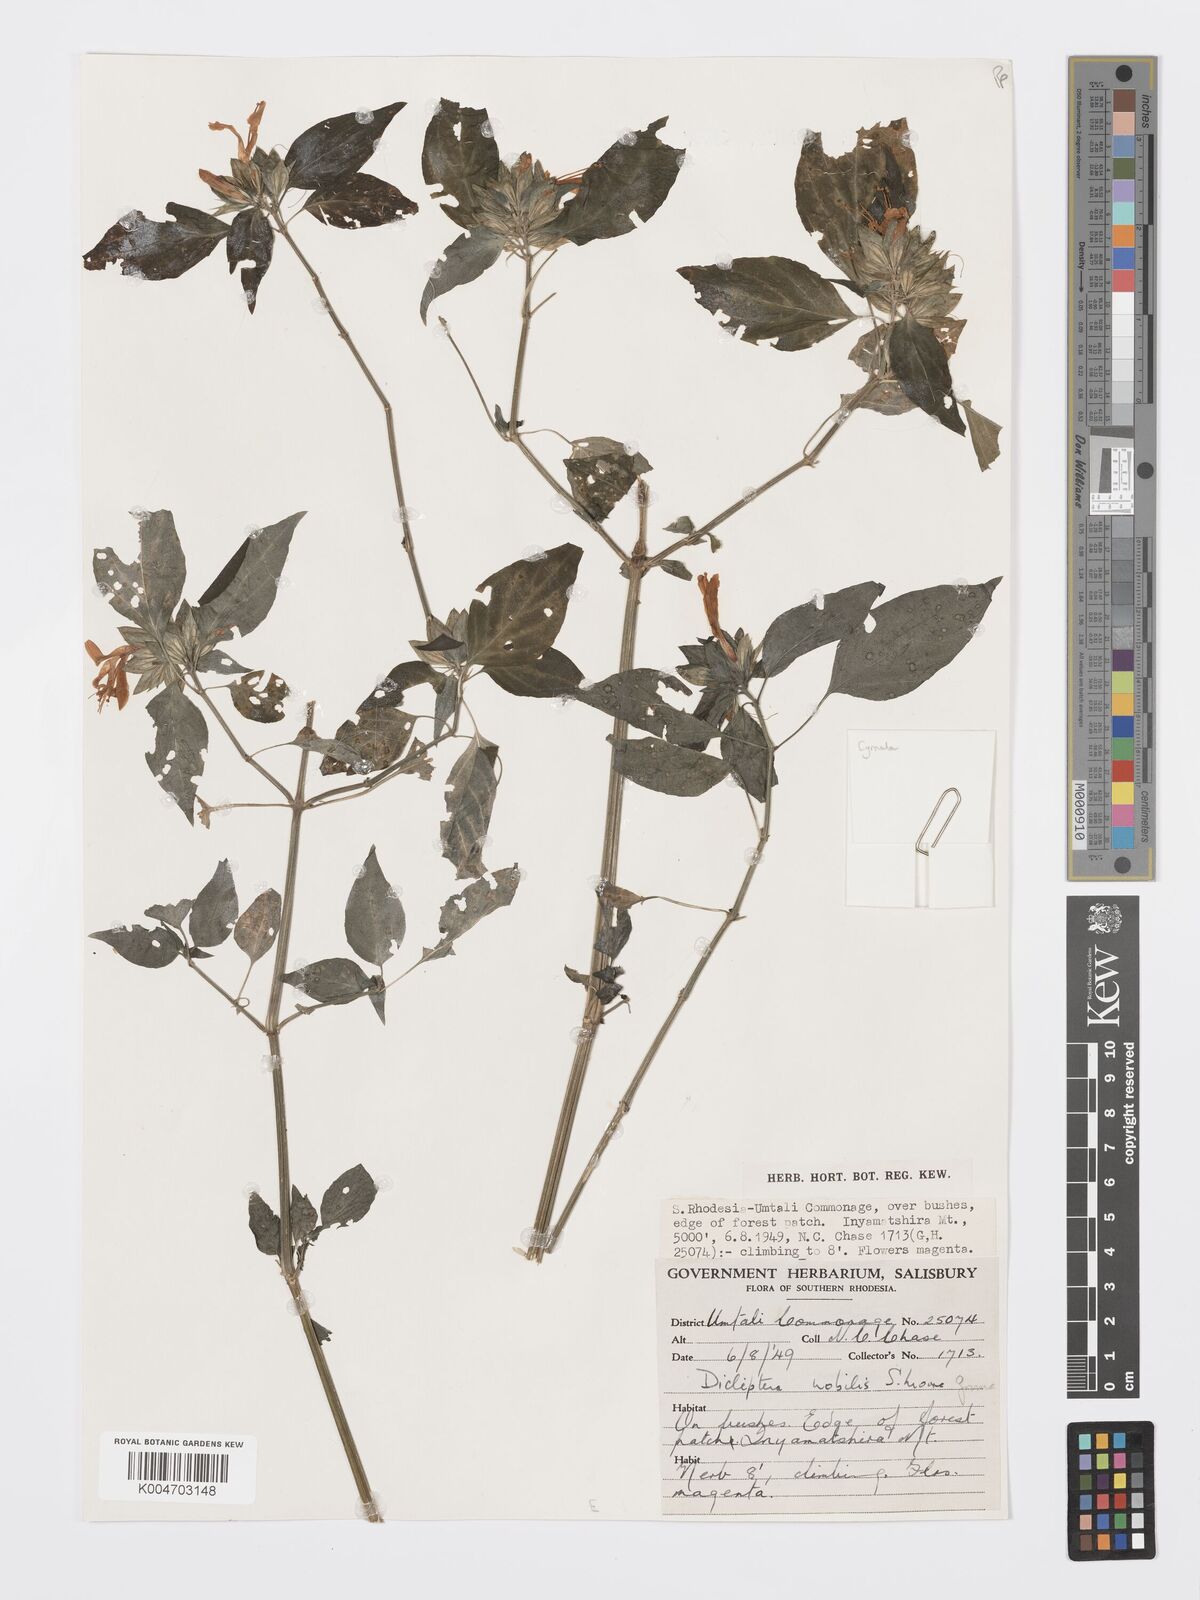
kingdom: Plantae
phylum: Tracheophyta
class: Magnoliopsida
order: Lamiales
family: Acanthaceae
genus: Dicliptera
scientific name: Dicliptera clinopodia
